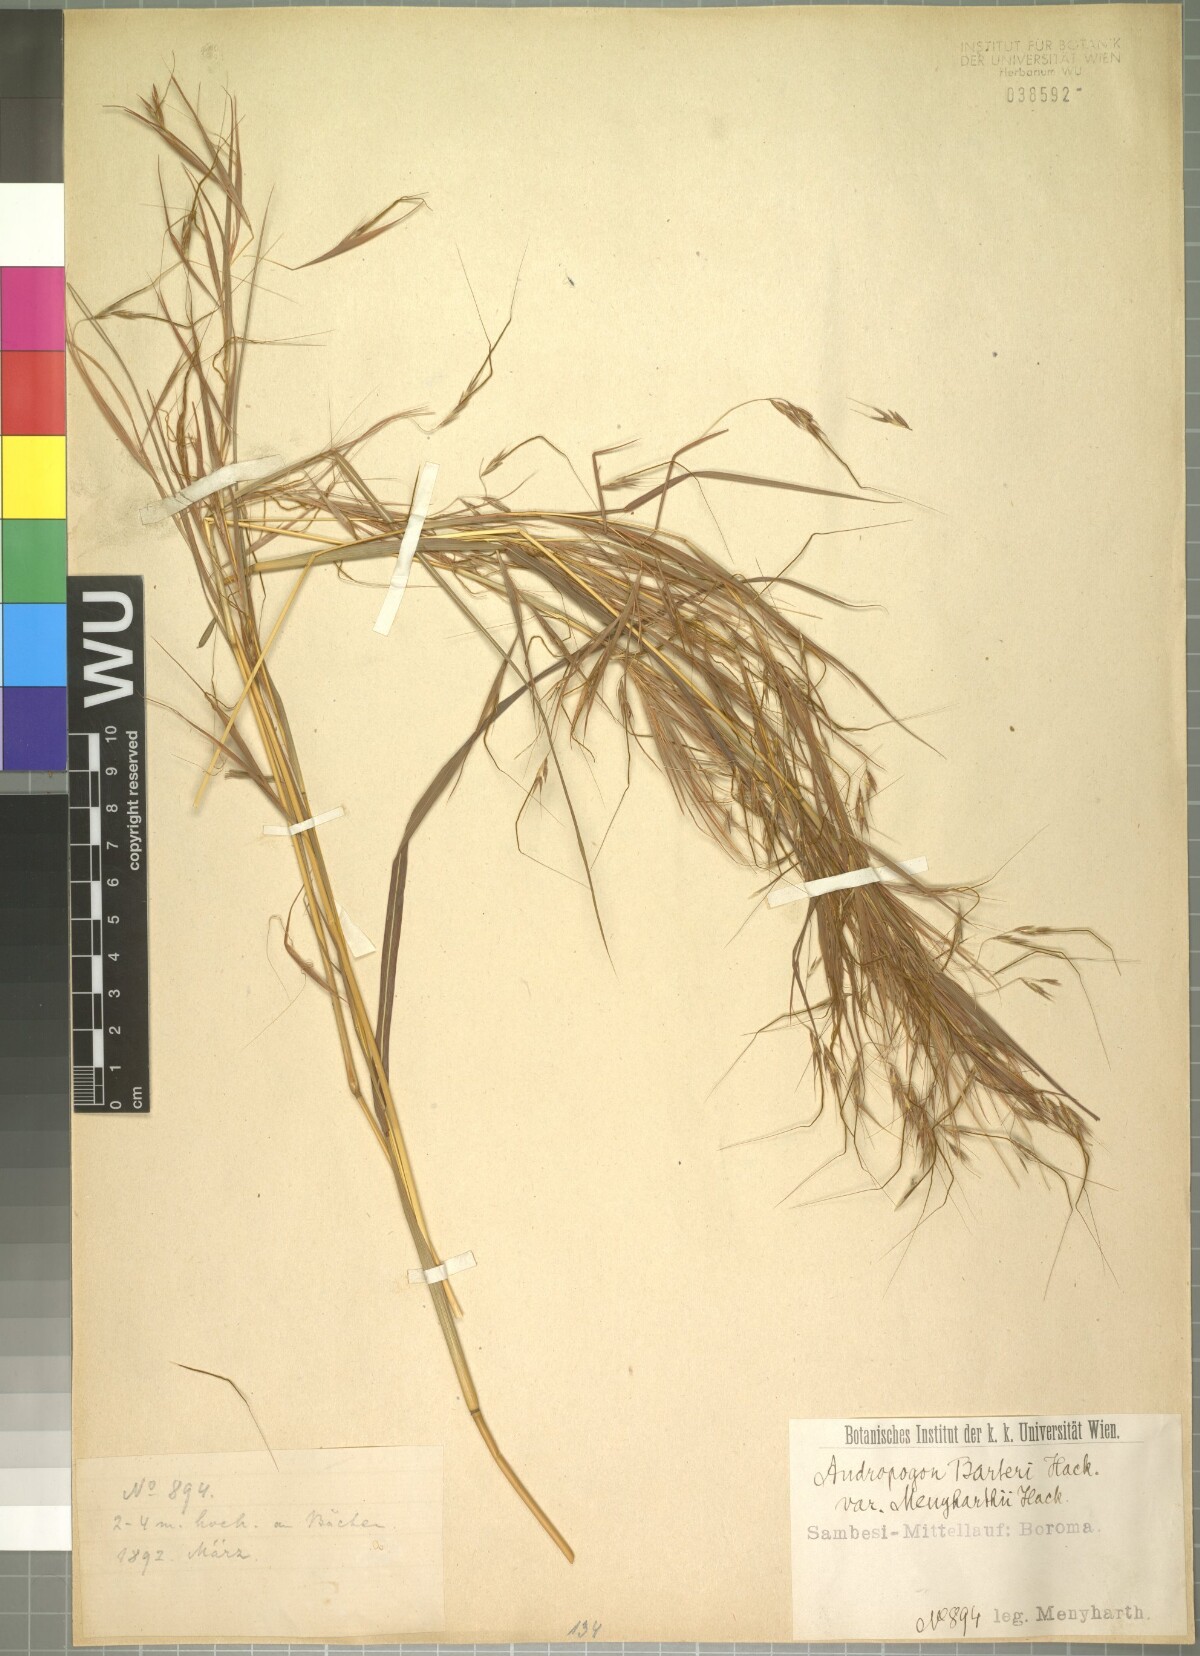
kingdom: Plantae
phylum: Tracheophyta
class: Liliopsida
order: Poales
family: Poaceae
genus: Hyparrhenia
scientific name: Hyparrhenia filipendula
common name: Tambookie grass
